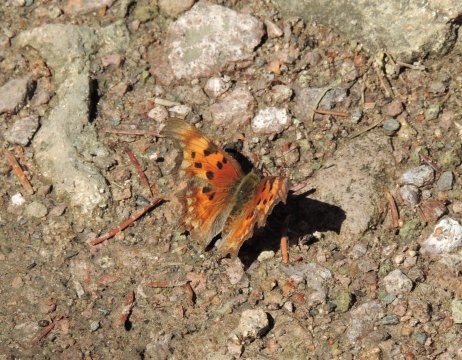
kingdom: Animalia
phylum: Arthropoda
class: Insecta
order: Lepidoptera
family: Nymphalidae
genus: Polygonia
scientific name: Polygonia gracilis
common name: Hoary Comma
